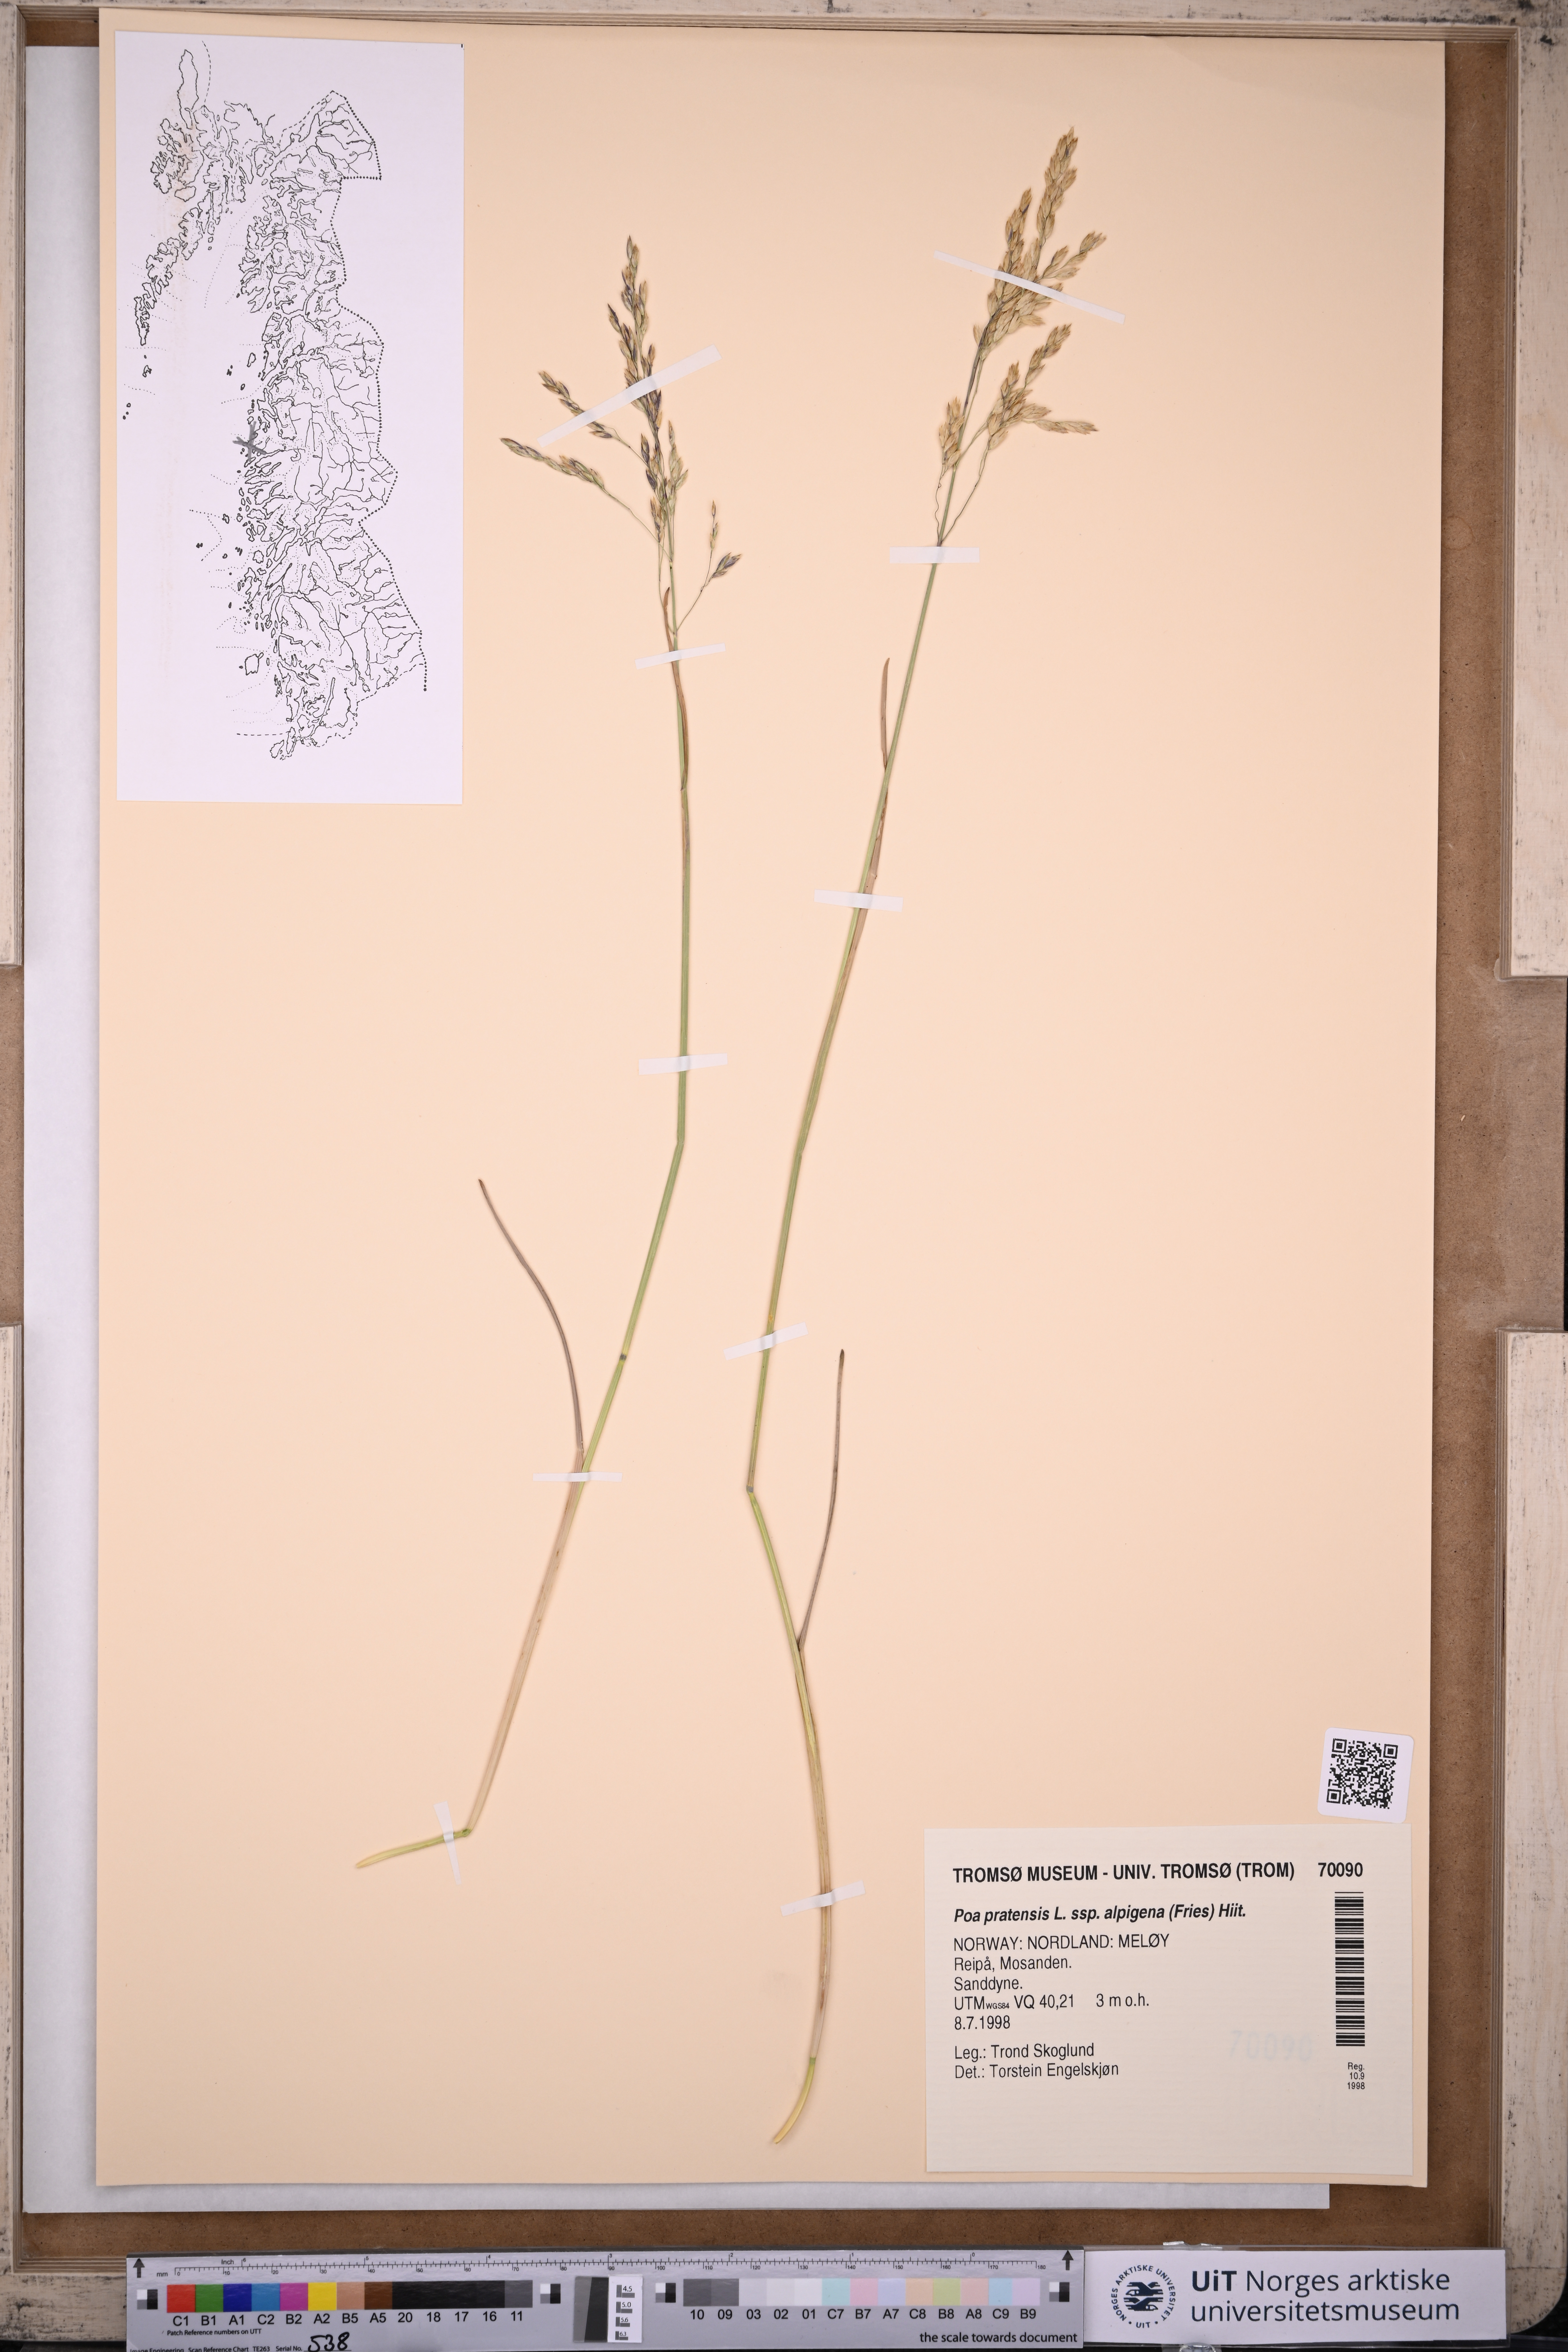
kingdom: Plantae
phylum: Tracheophyta
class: Liliopsida
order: Poales
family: Poaceae
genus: Poa
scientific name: Poa alpigena
